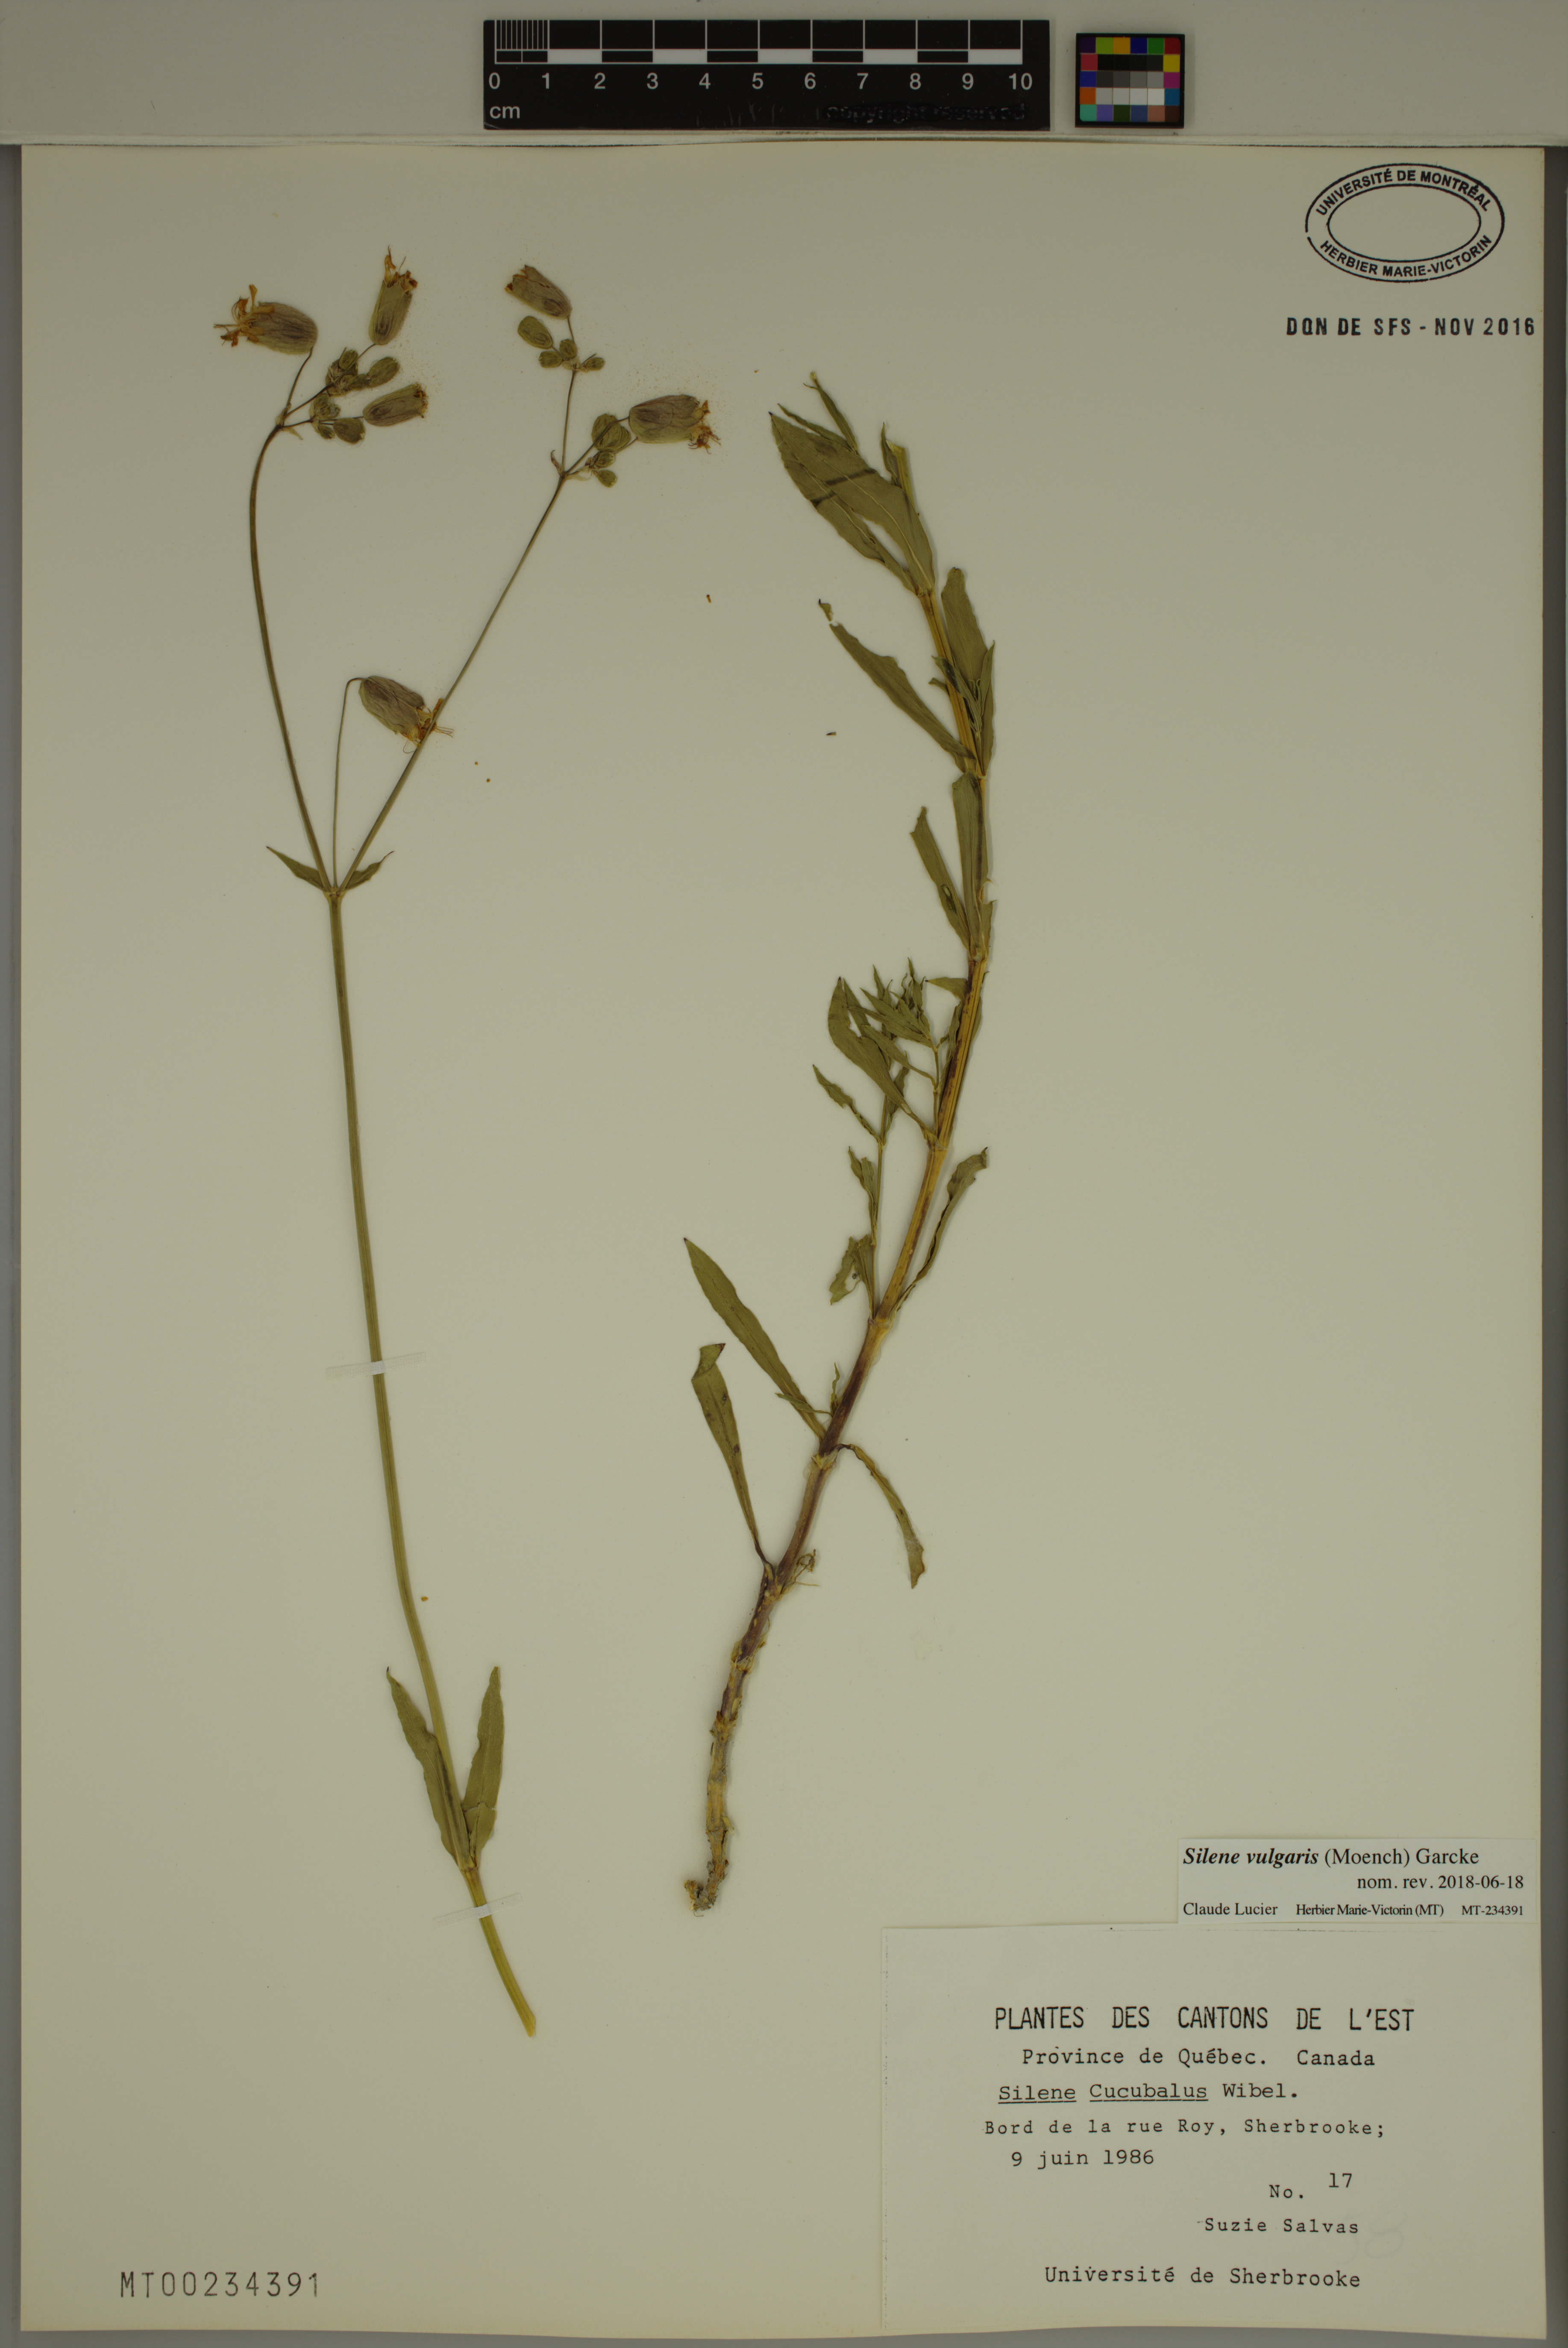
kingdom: Plantae
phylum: Tracheophyta
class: Magnoliopsida
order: Caryophyllales
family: Caryophyllaceae
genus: Silene
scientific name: Silene vulgaris
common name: Bladder campion
